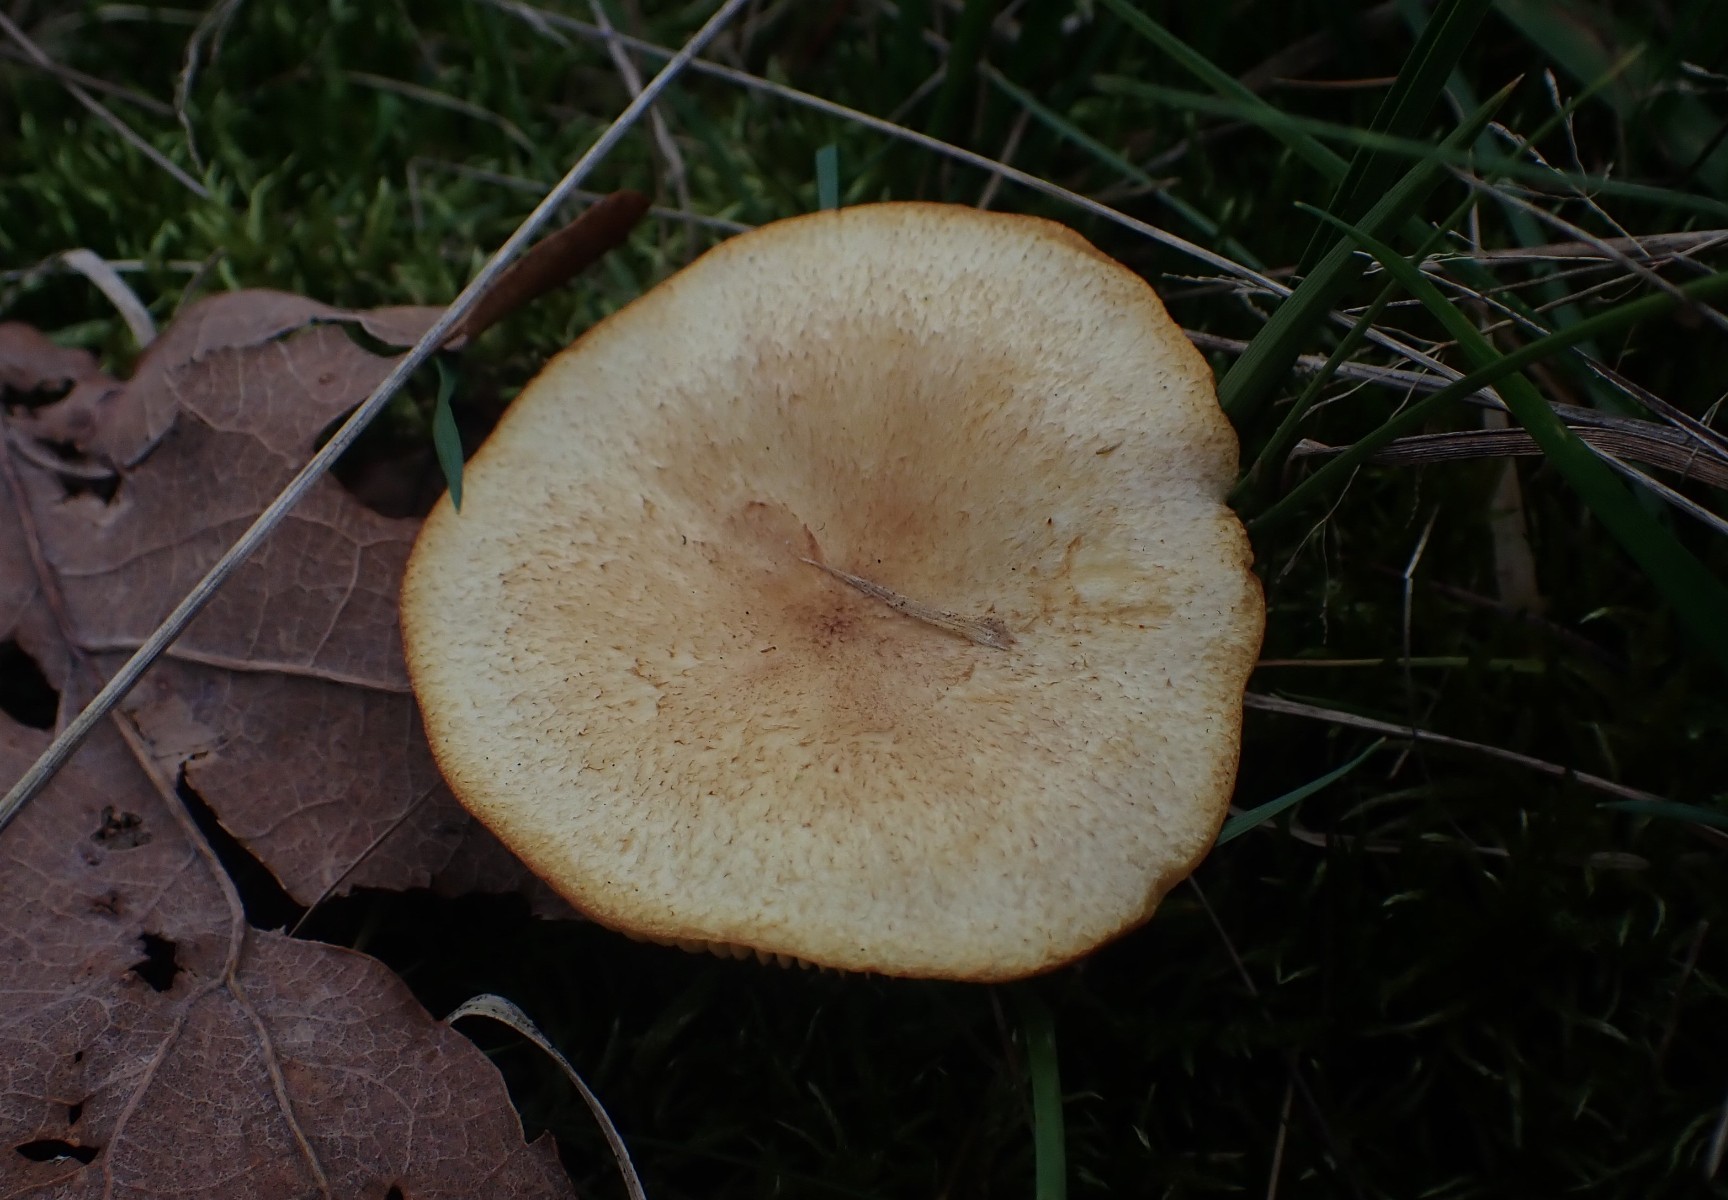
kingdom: Fungi
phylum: Basidiomycota
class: Agaricomycetes
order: Agaricales
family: Tricholomataceae
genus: Tricholomopsis
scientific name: Tricholomopsis rutilans
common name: purpur-væbnerhat
